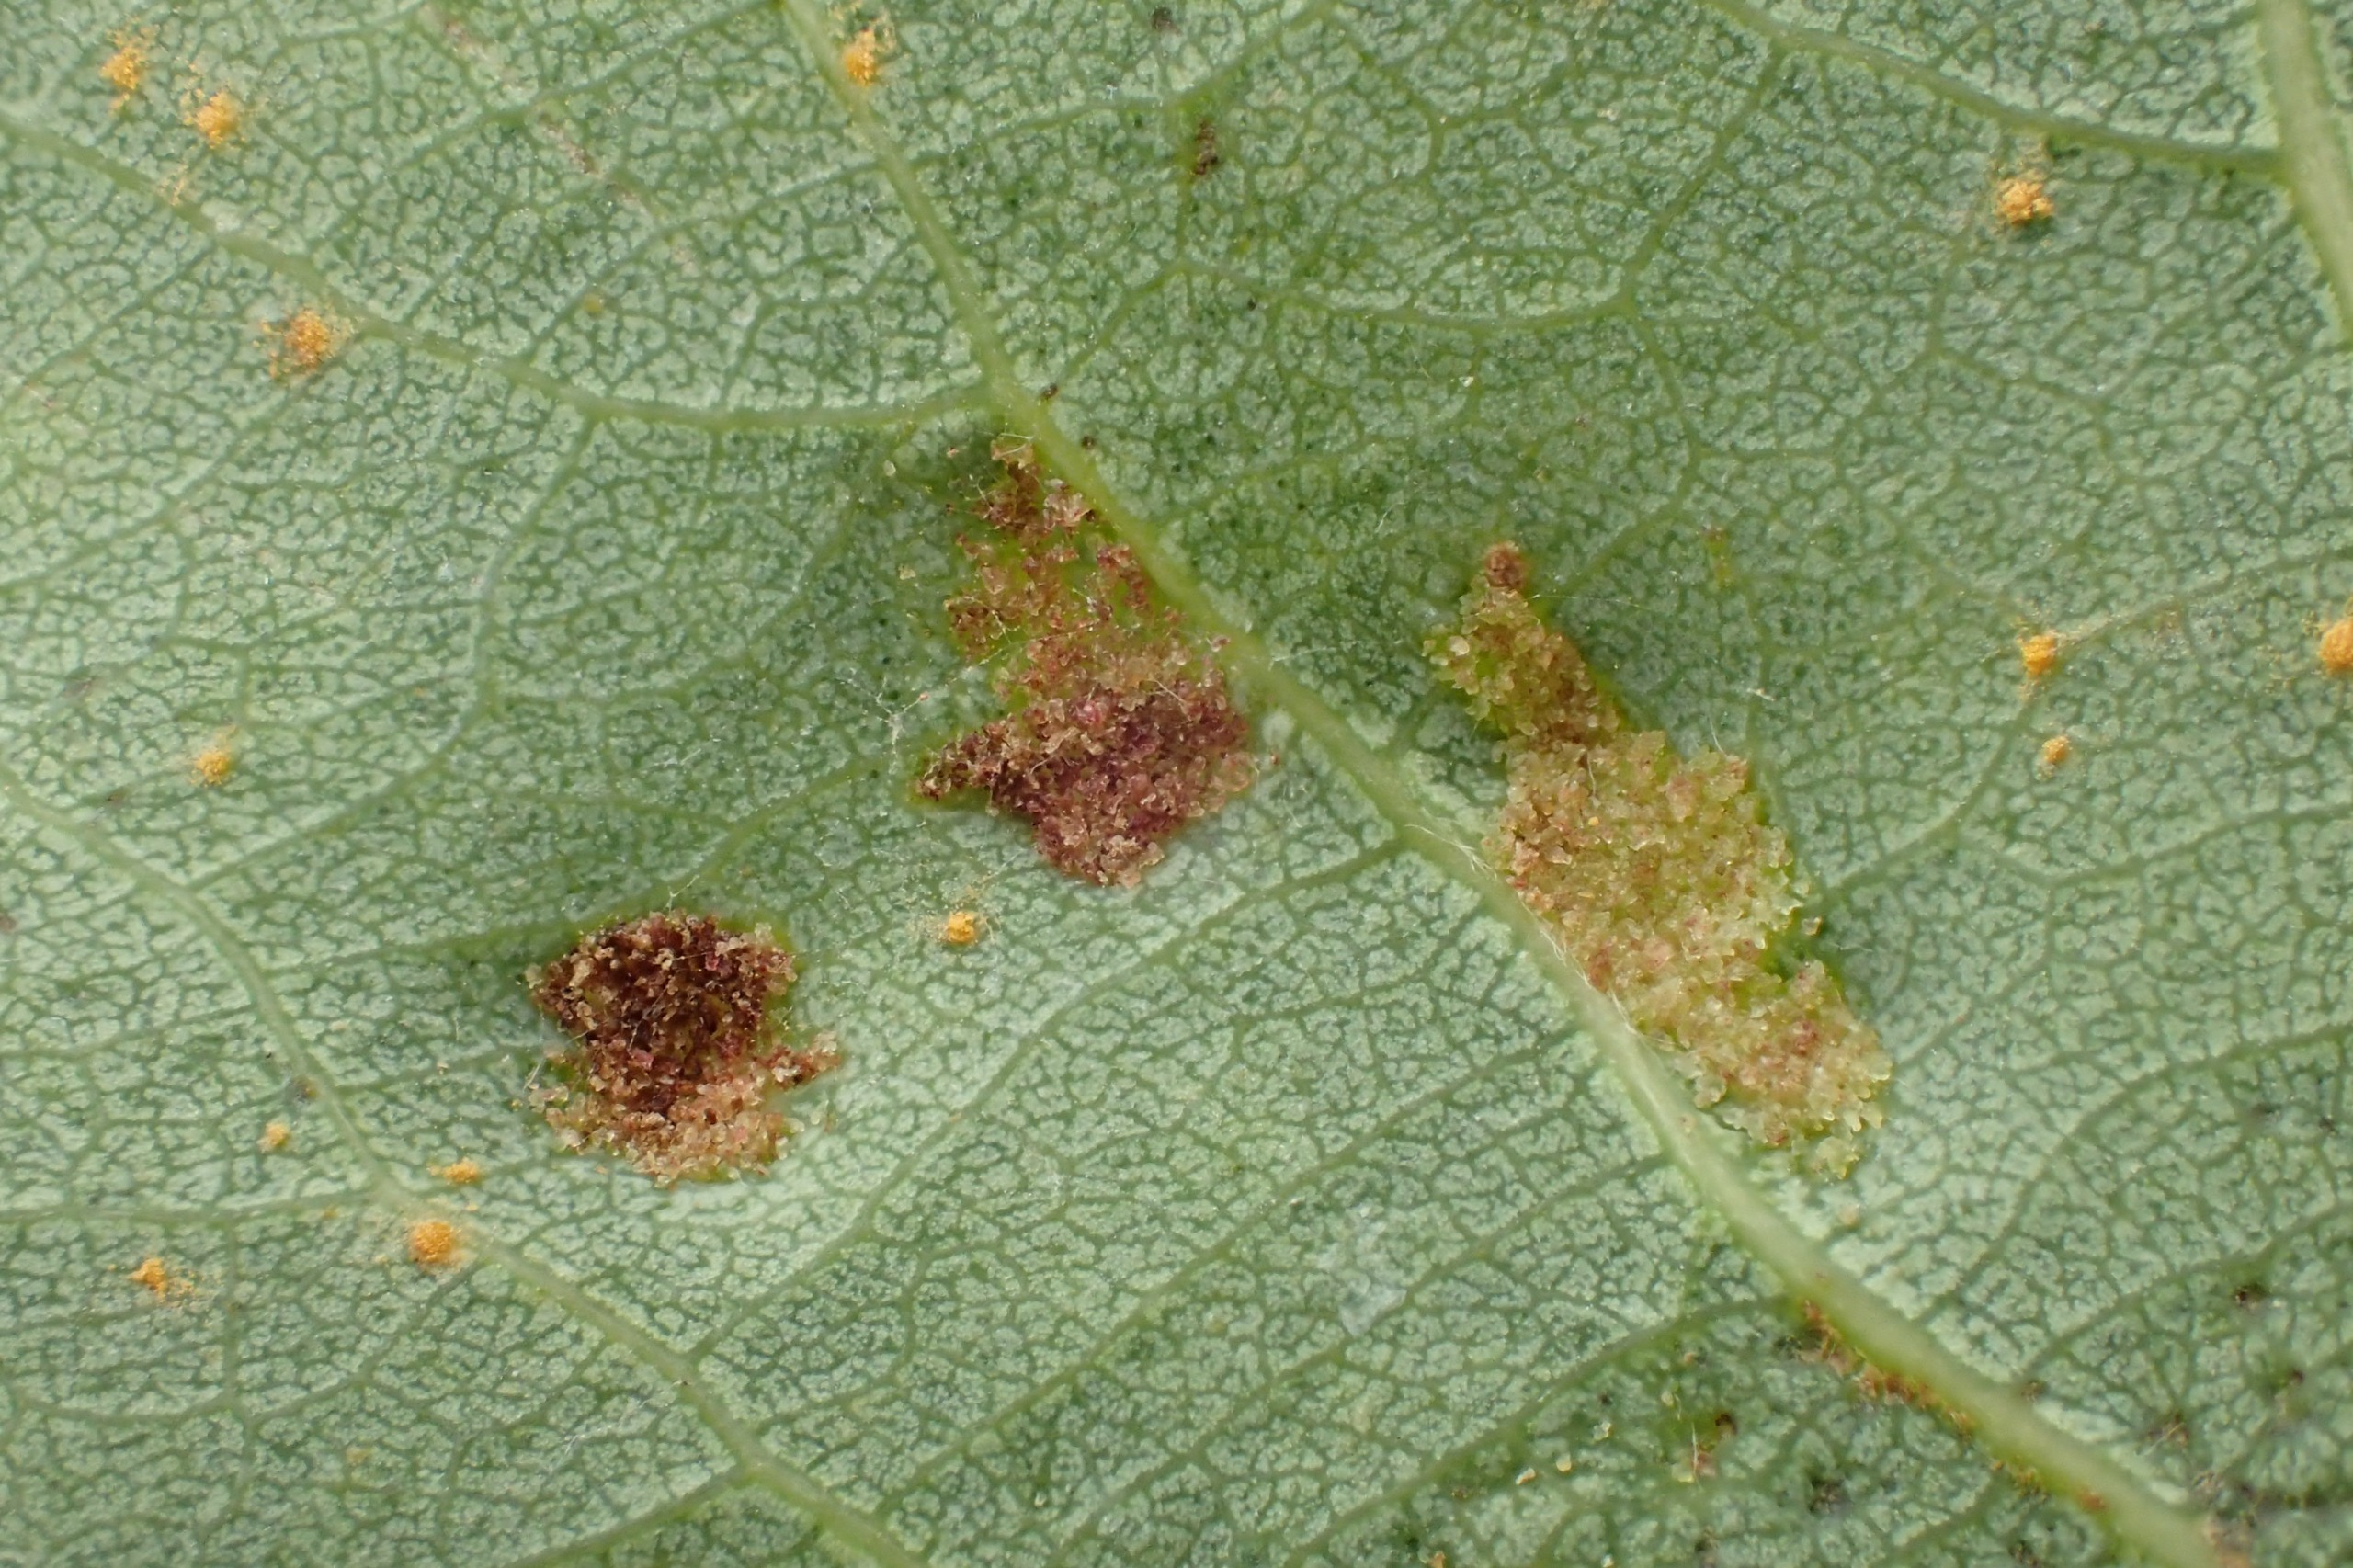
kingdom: Animalia
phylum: Arthropoda
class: Arachnida
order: Trombidiformes
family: Eriophyidae
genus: Phyllocoptes
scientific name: Phyllocoptes populi
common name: Aspegalmide
